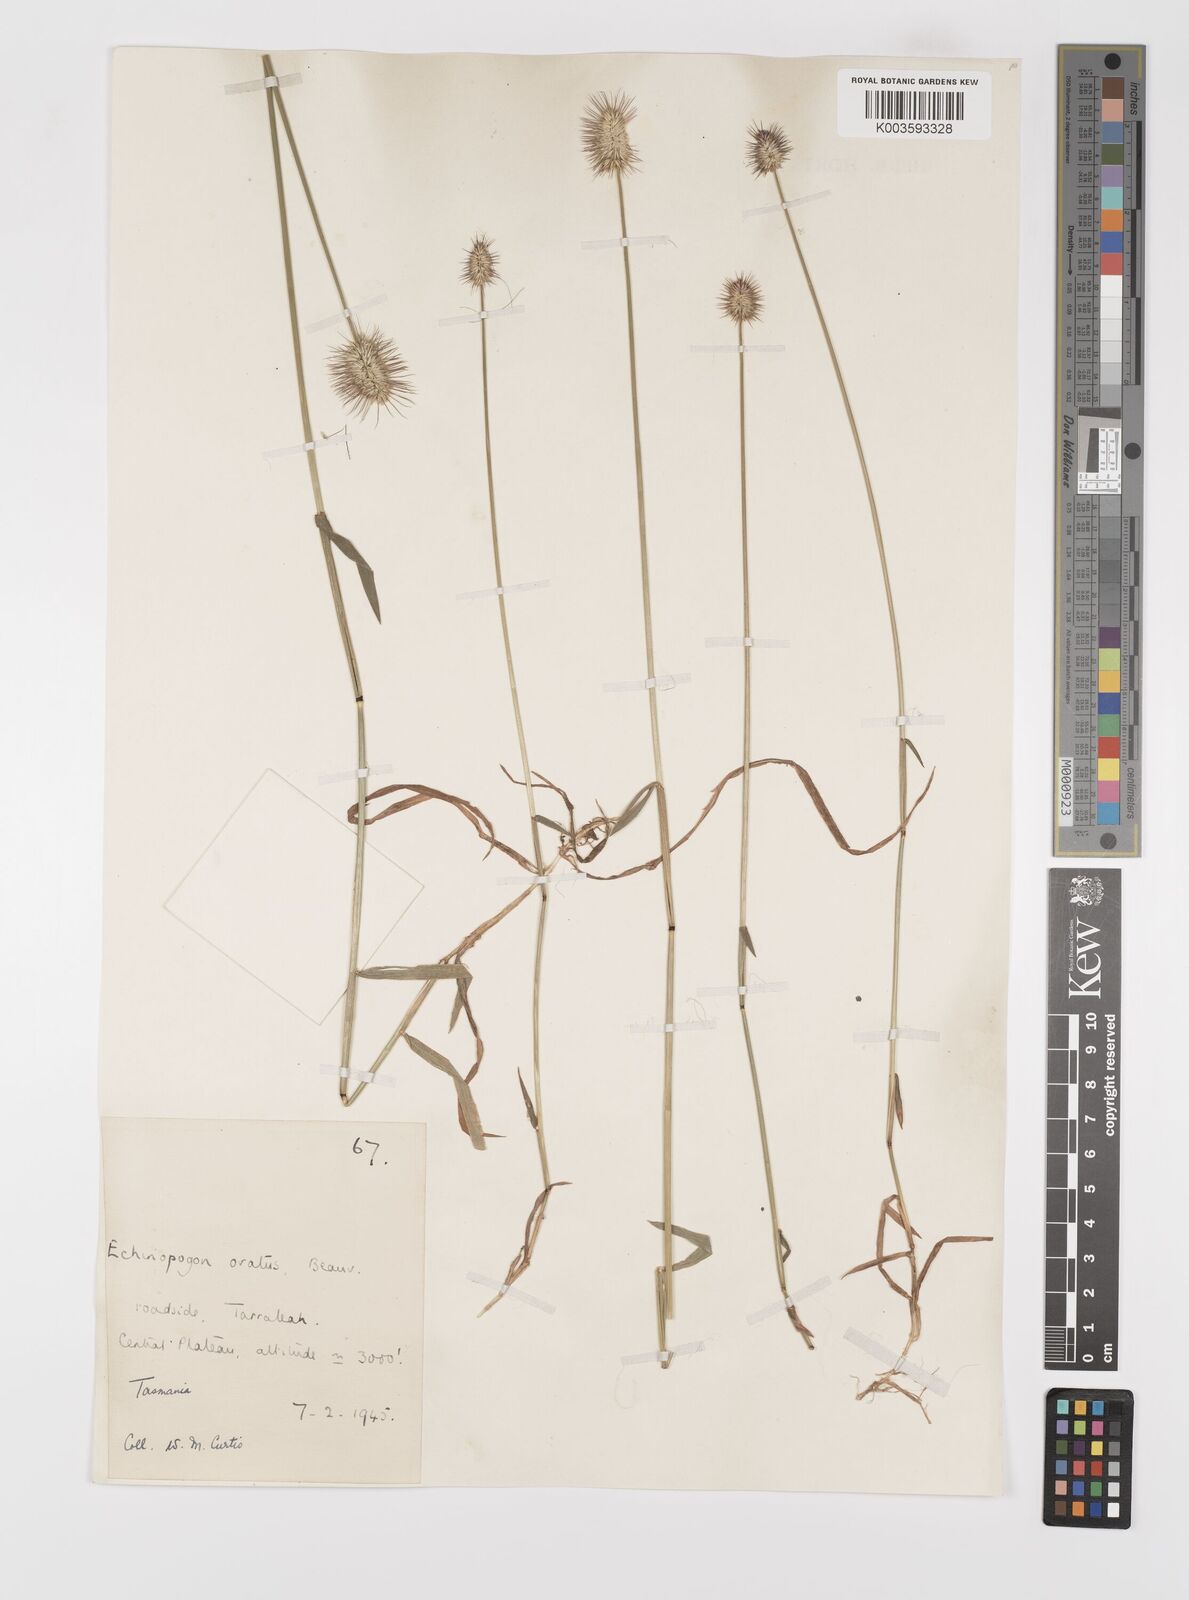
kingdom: Plantae
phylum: Tracheophyta
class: Liliopsida
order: Poales
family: Poaceae
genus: Echinopogon
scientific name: Echinopogon ovatus
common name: Hedgehog-grass
